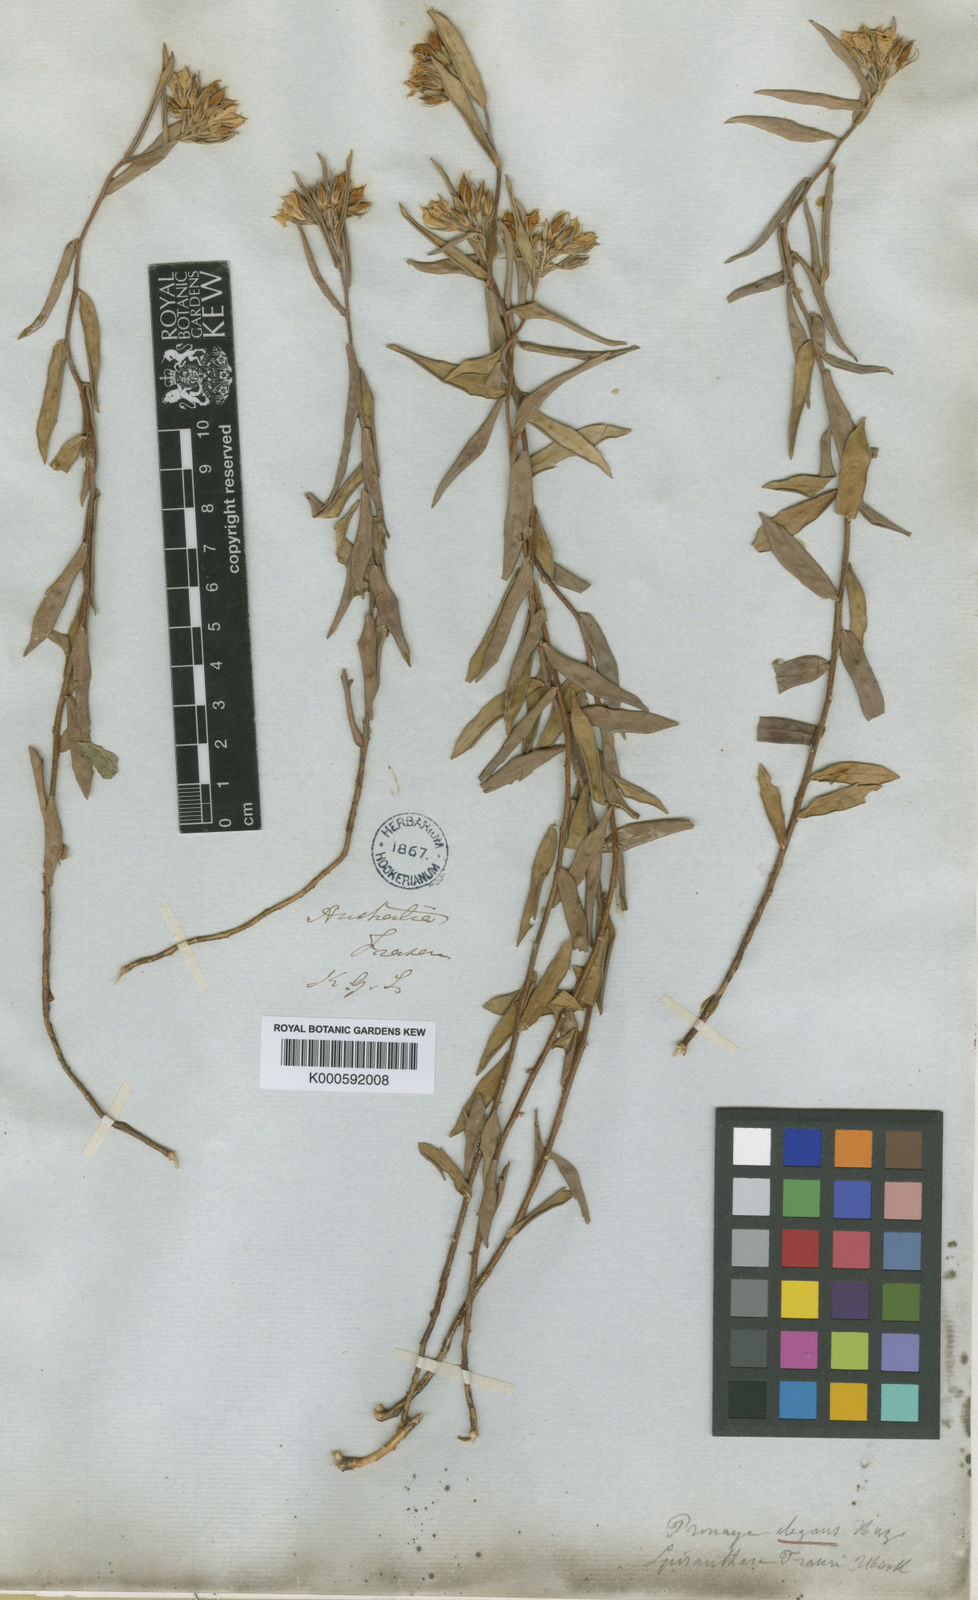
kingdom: Plantae
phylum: Tracheophyta
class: Magnoliopsida
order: Apiales
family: Pittosporaceae
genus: Billardiera
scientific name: Billardiera fraseri
